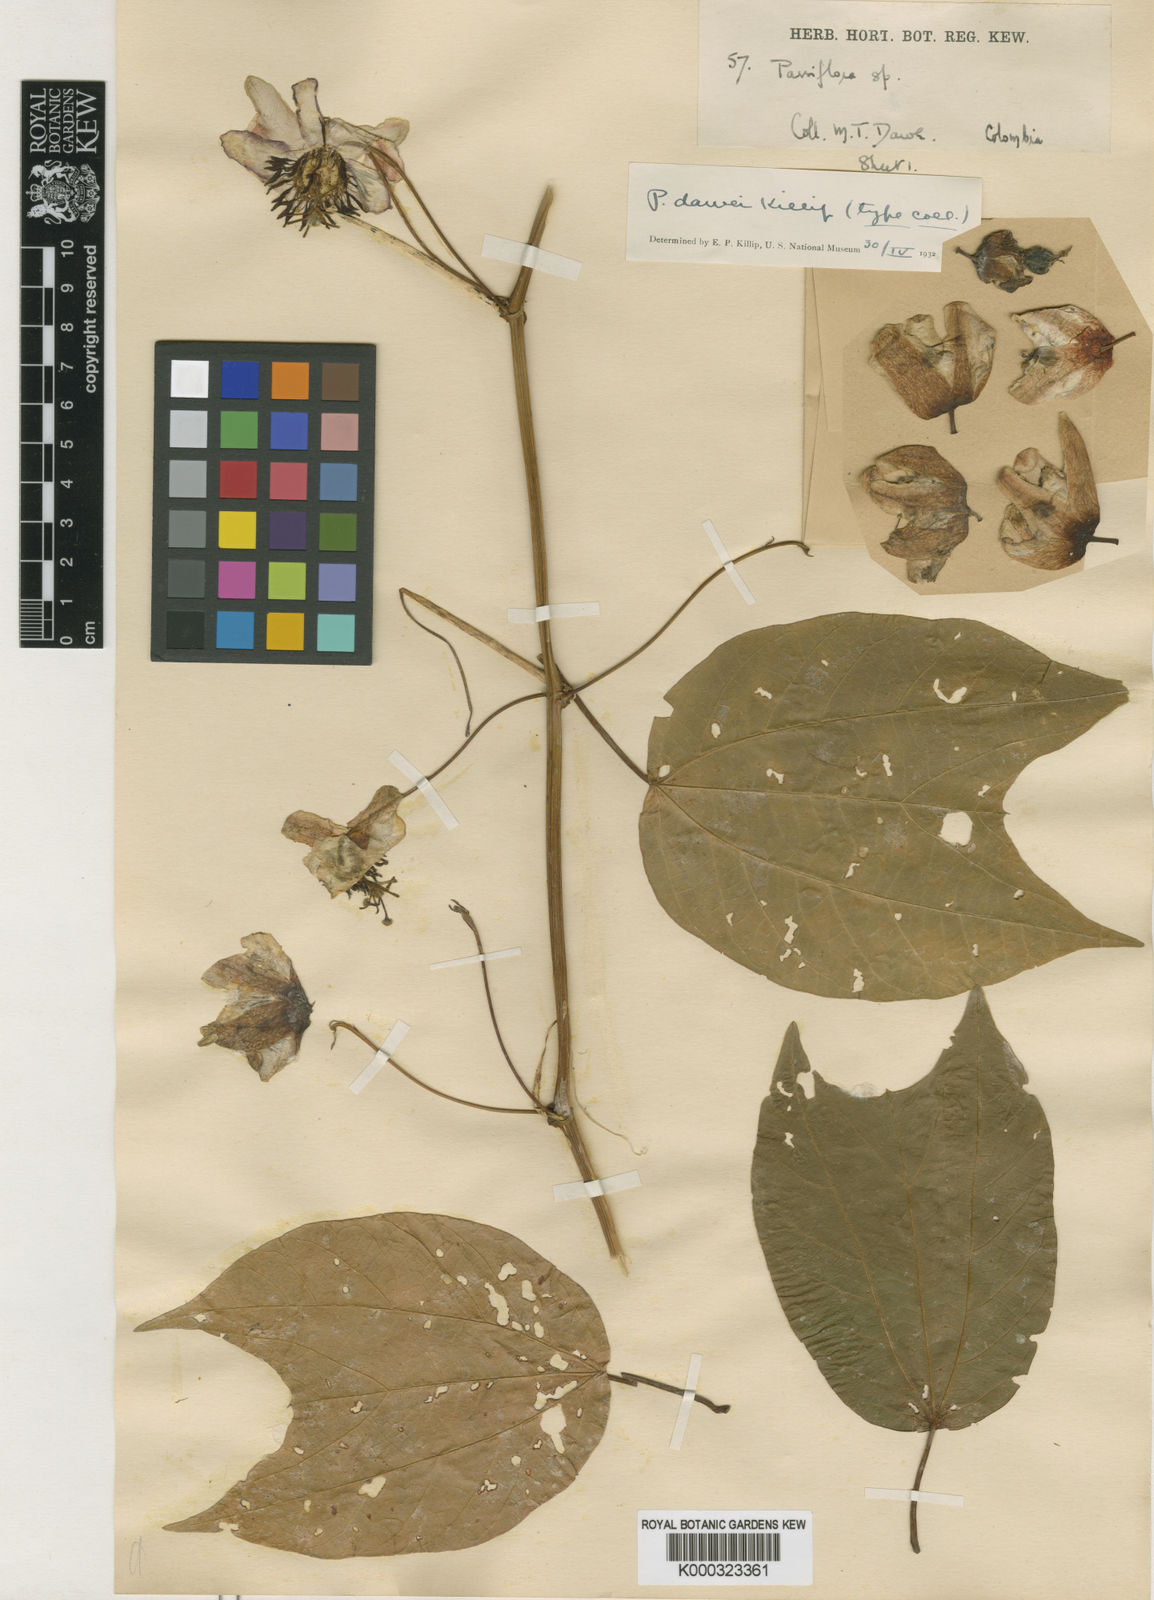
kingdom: Plantae
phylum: Tracheophyta
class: Magnoliopsida
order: Malpighiales
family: Passifloraceae
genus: Passiflora
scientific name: Passiflora dawei
